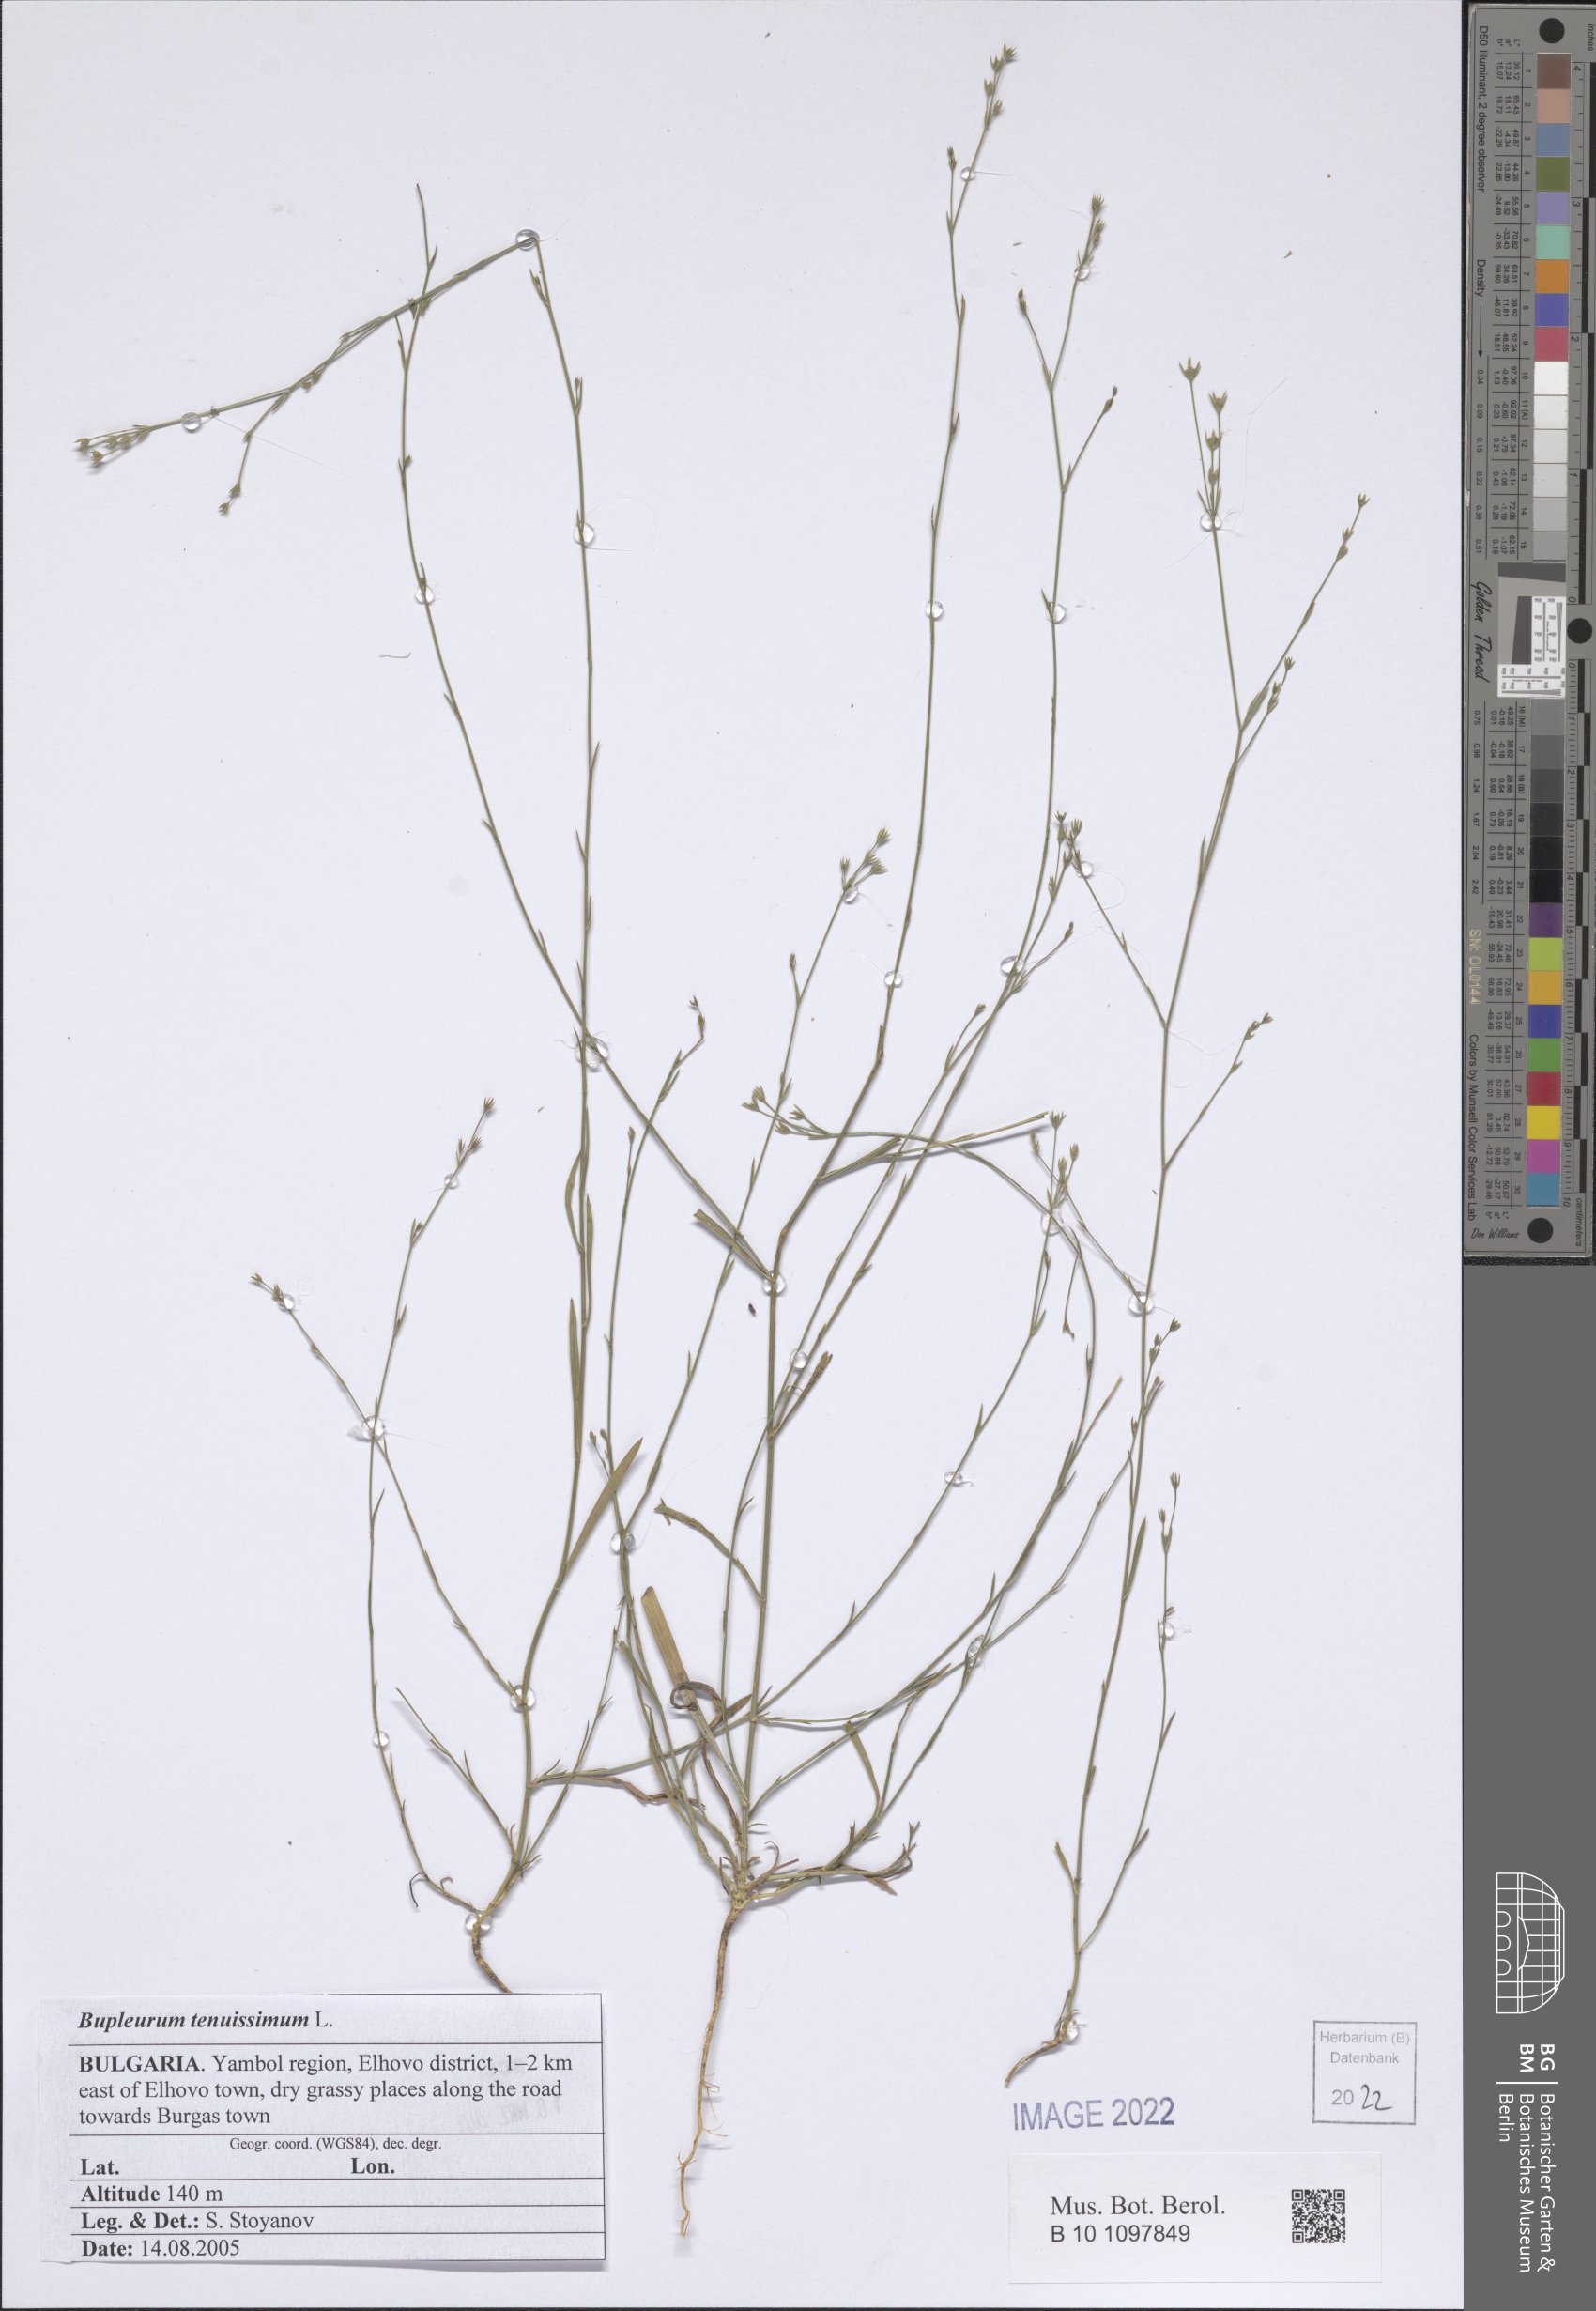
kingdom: Plantae
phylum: Tracheophyta
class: Magnoliopsida
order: Apiales
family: Apiaceae
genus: Bupleurum
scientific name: Bupleurum tenuissimum
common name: Slender hare's-ear
